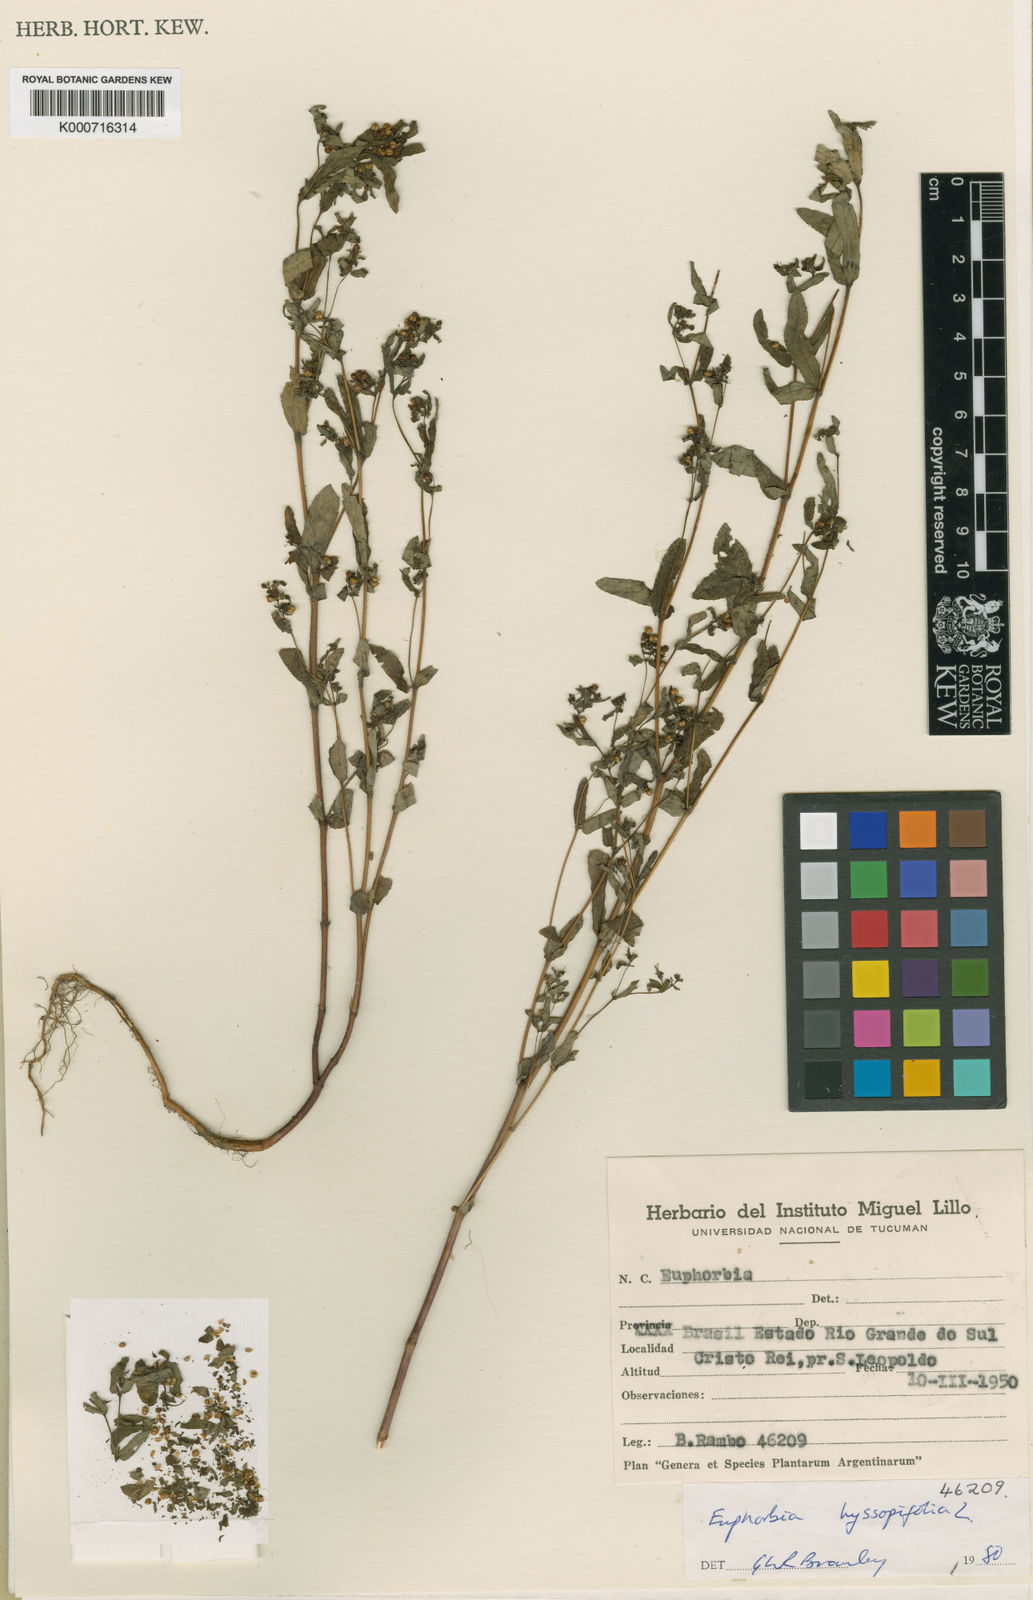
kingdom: Plantae
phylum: Tracheophyta
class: Magnoliopsida
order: Malpighiales
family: Euphorbiaceae
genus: Euphorbia
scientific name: Euphorbia hyssopifolia
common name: Hyssopleaf sandmat
